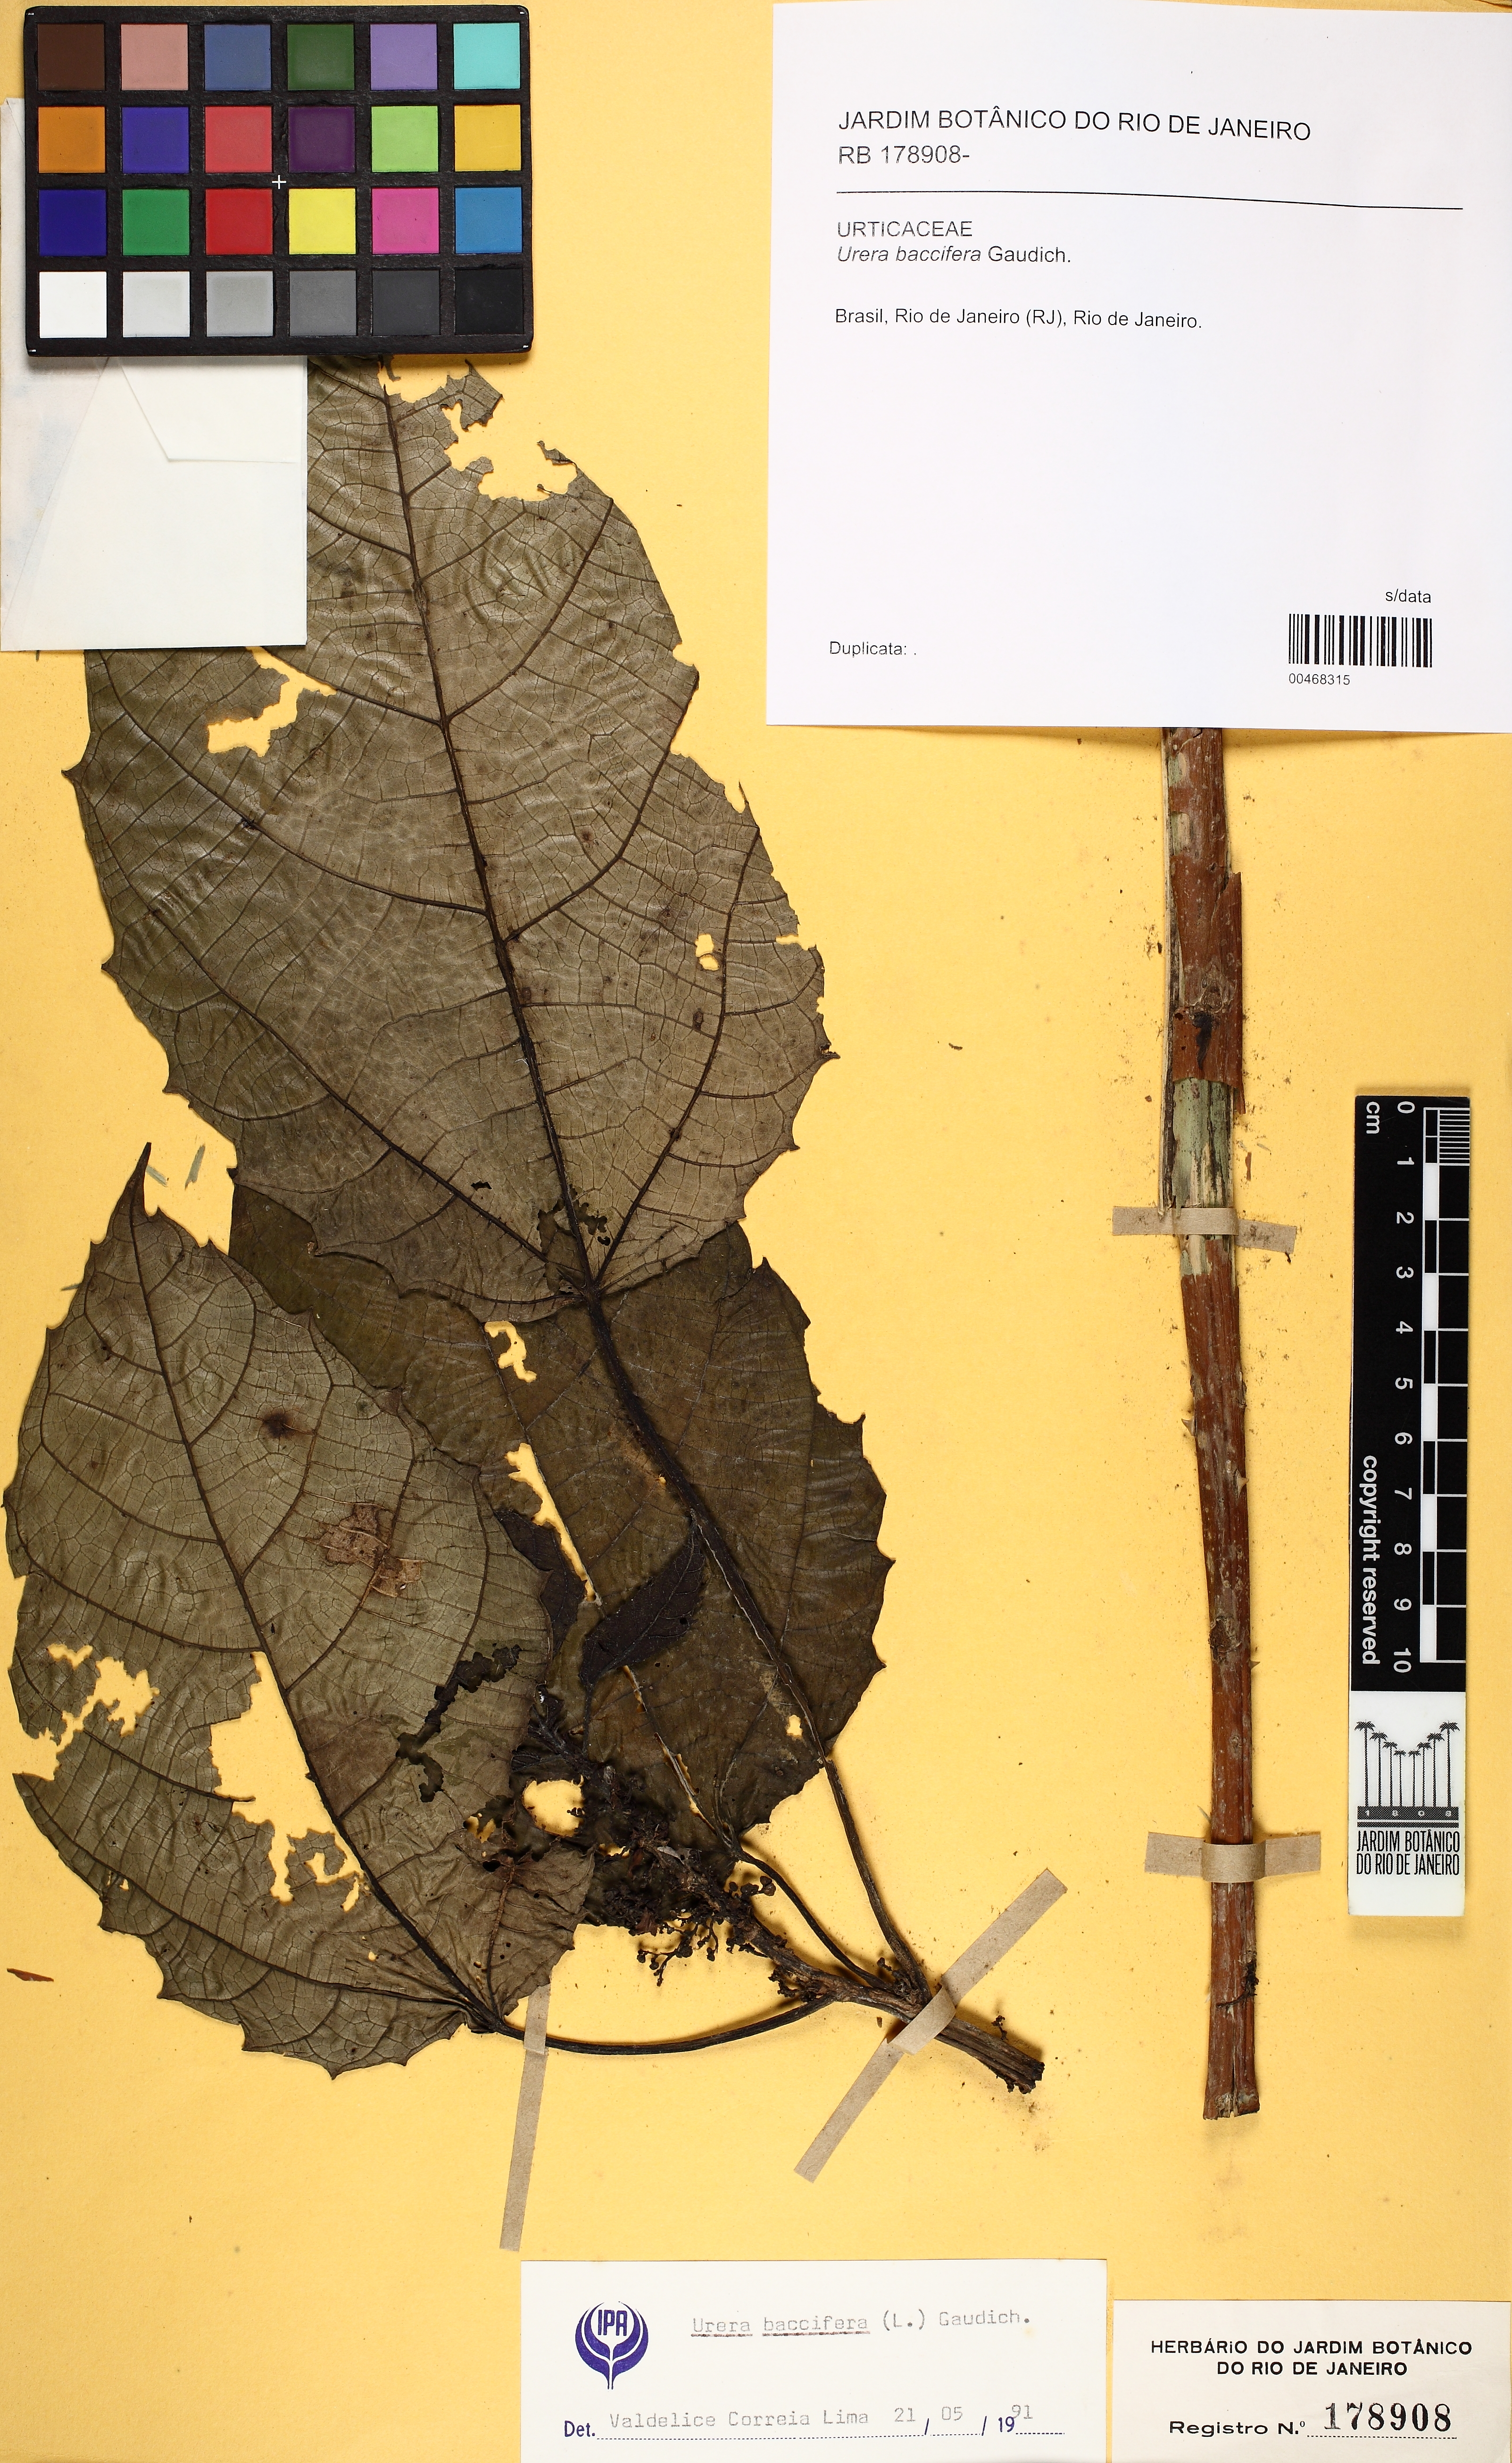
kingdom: Plantae
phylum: Tracheophyta
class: Magnoliopsida
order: Rosales
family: Urticaceae
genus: Urera
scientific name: Urera baccifera
